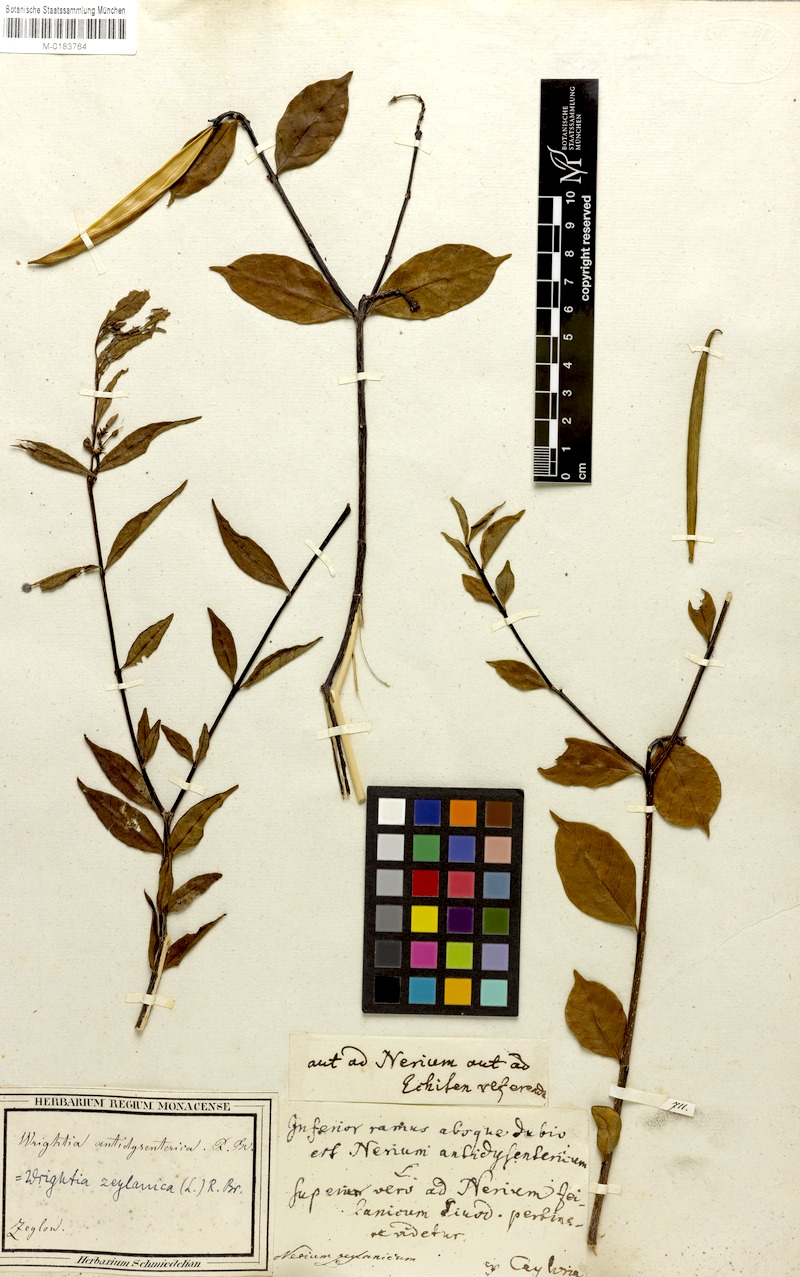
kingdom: Plantae
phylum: Tracheophyta
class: Magnoliopsida
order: Gentianales
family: Apocynaceae
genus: Wrightia
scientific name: Wrightia antidysenterica
